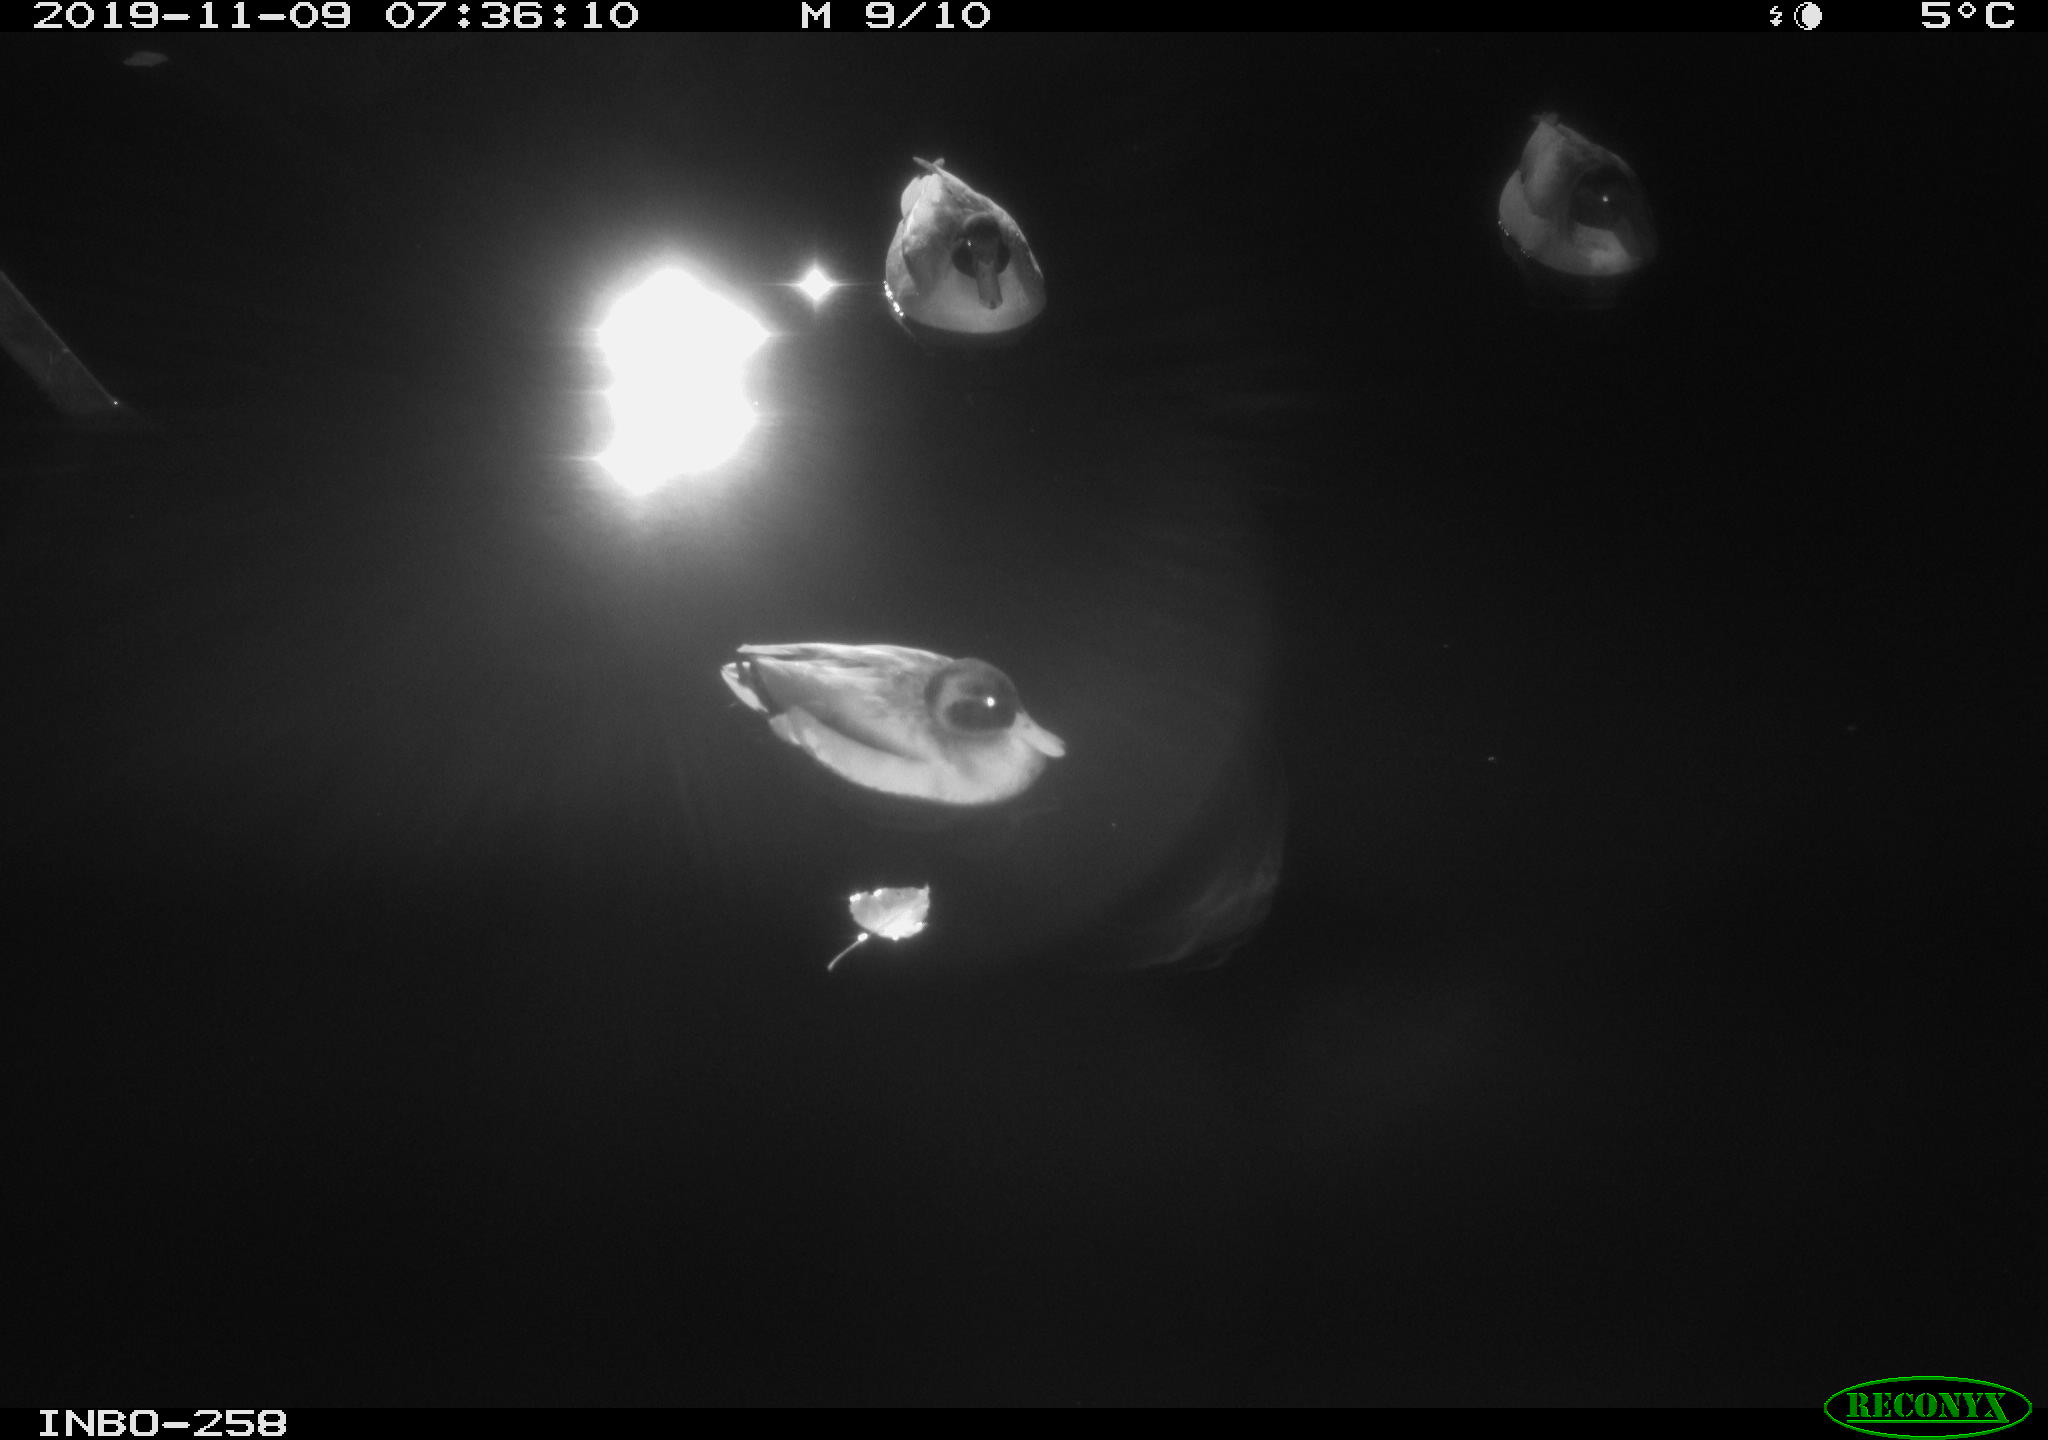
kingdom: Animalia
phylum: Chordata
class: Aves
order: Anseriformes
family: Anatidae
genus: Anas
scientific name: Anas platyrhynchos
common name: Mallard
